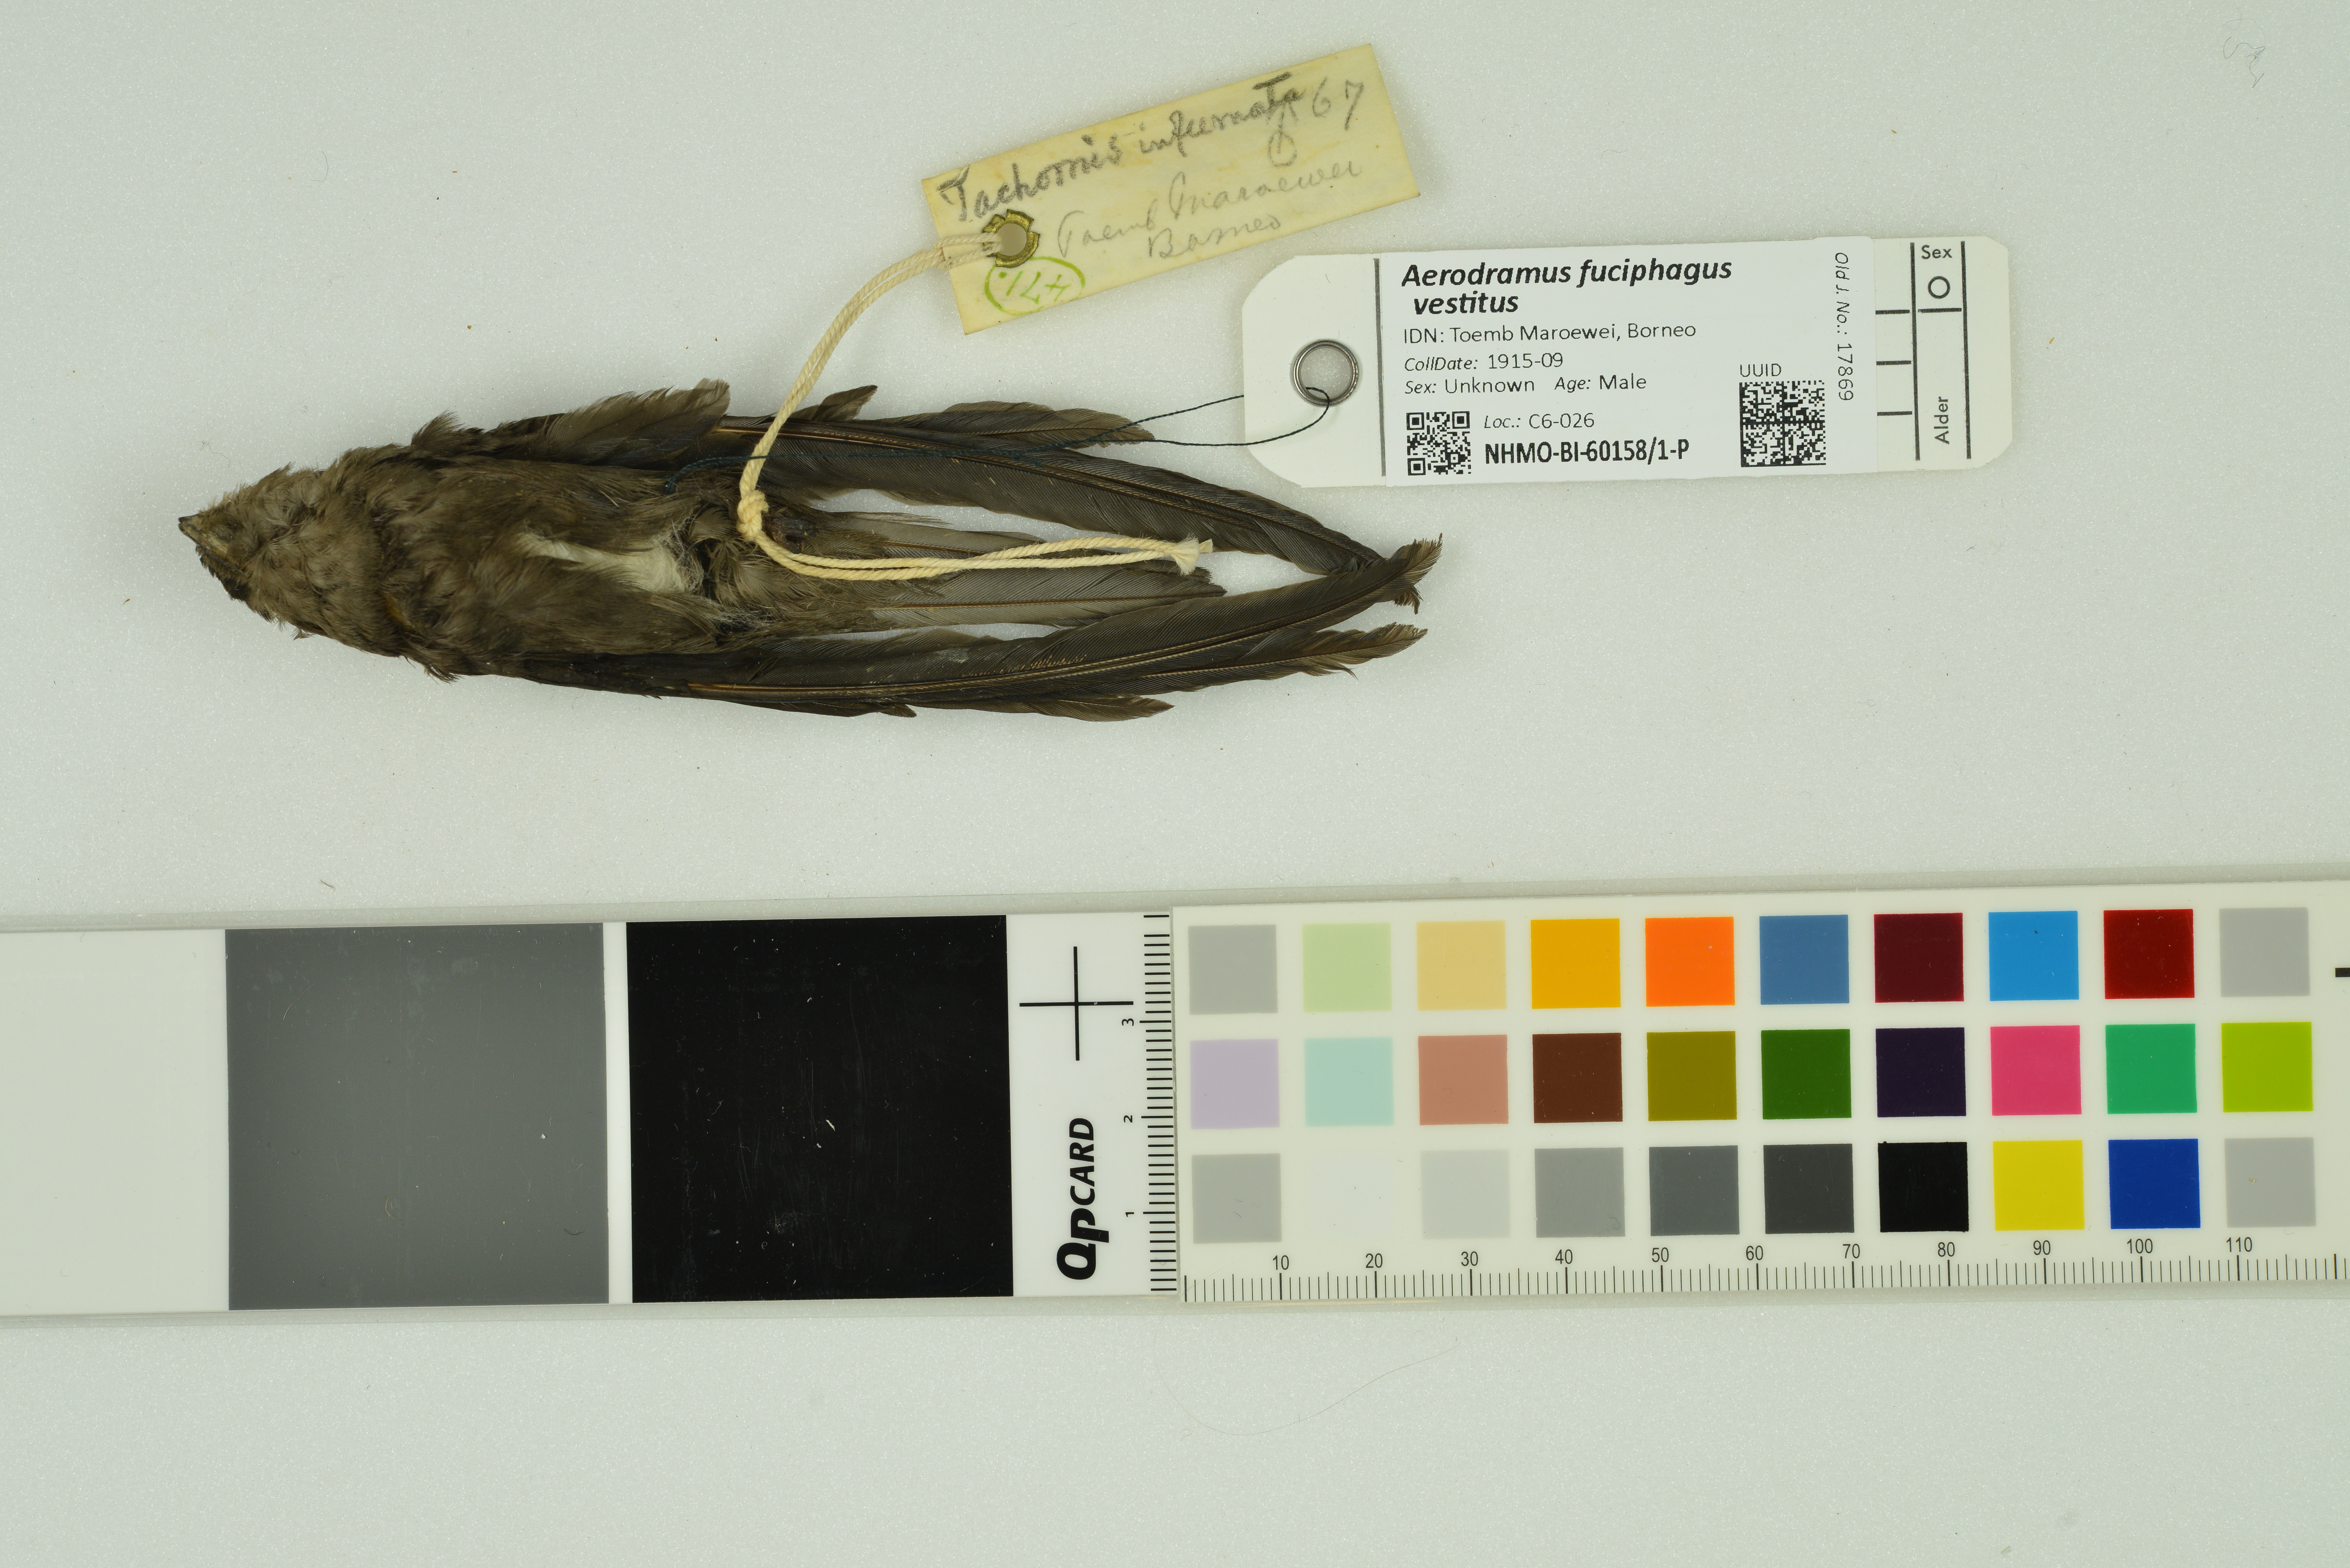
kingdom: Animalia
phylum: Chordata
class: Aves
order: Apodiformes
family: Apodidae
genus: Aerodramus
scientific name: Aerodramus fuciphagus
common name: Edible-nest swiftlet
